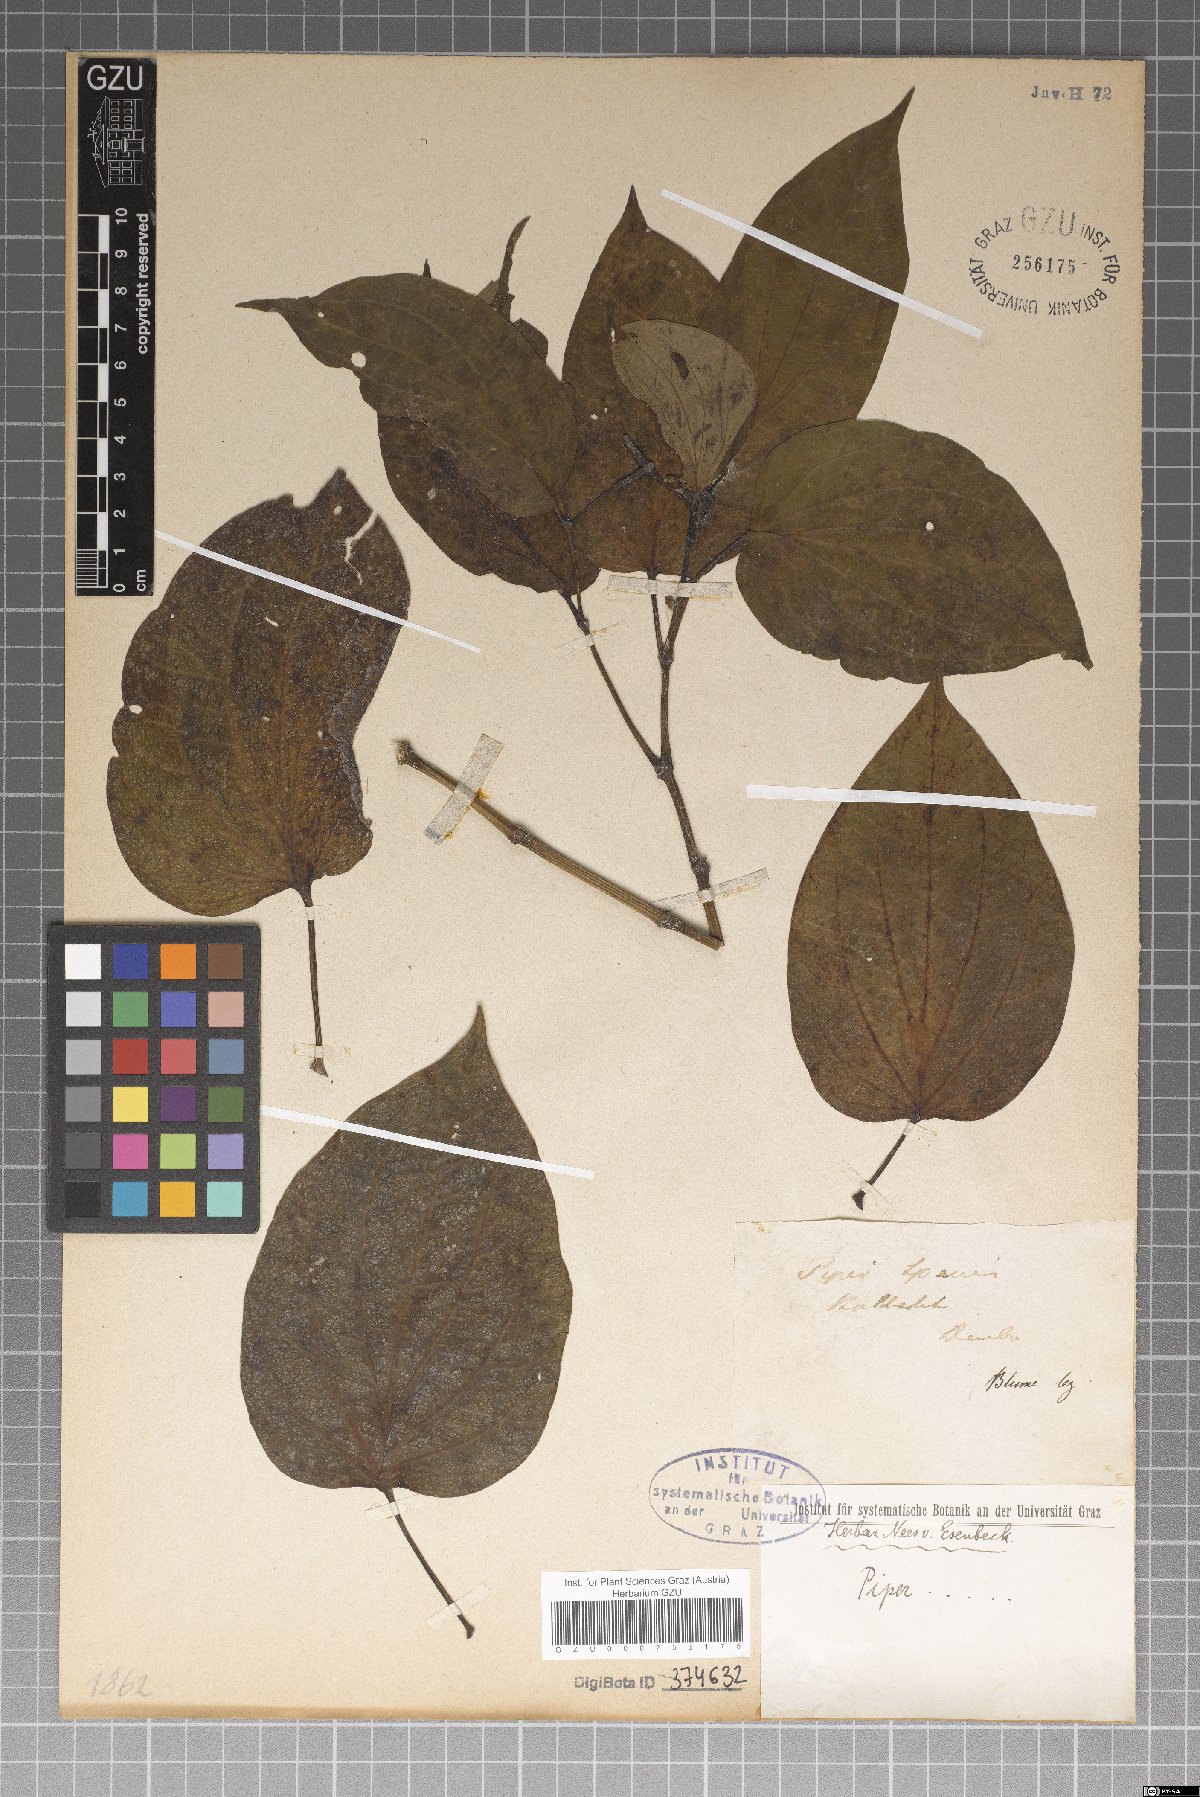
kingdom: Plantae
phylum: Tracheophyta
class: Magnoliopsida
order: Piperales
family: Piperaceae
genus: Piper
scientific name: Piper
